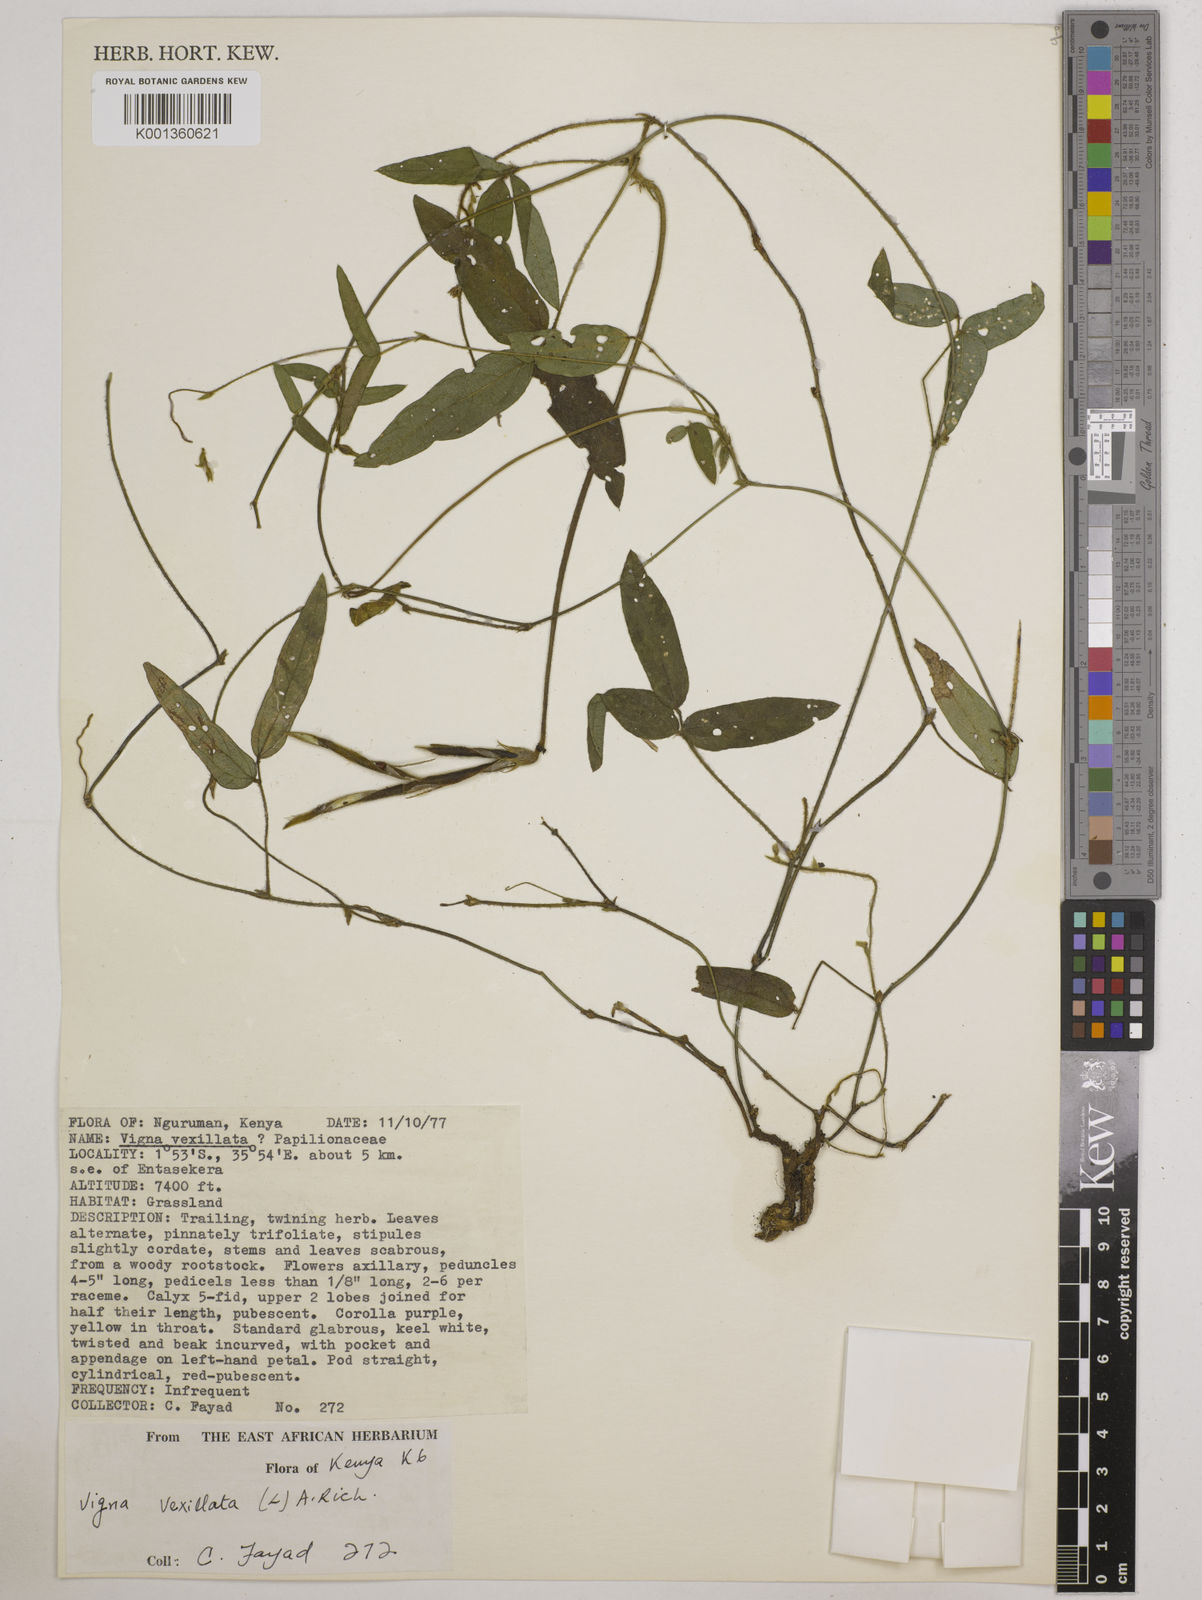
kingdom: Plantae
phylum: Tracheophyta
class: Magnoliopsida
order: Fabales
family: Fabaceae
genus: Vigna
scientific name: Vigna vexillata
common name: Zombi pea
